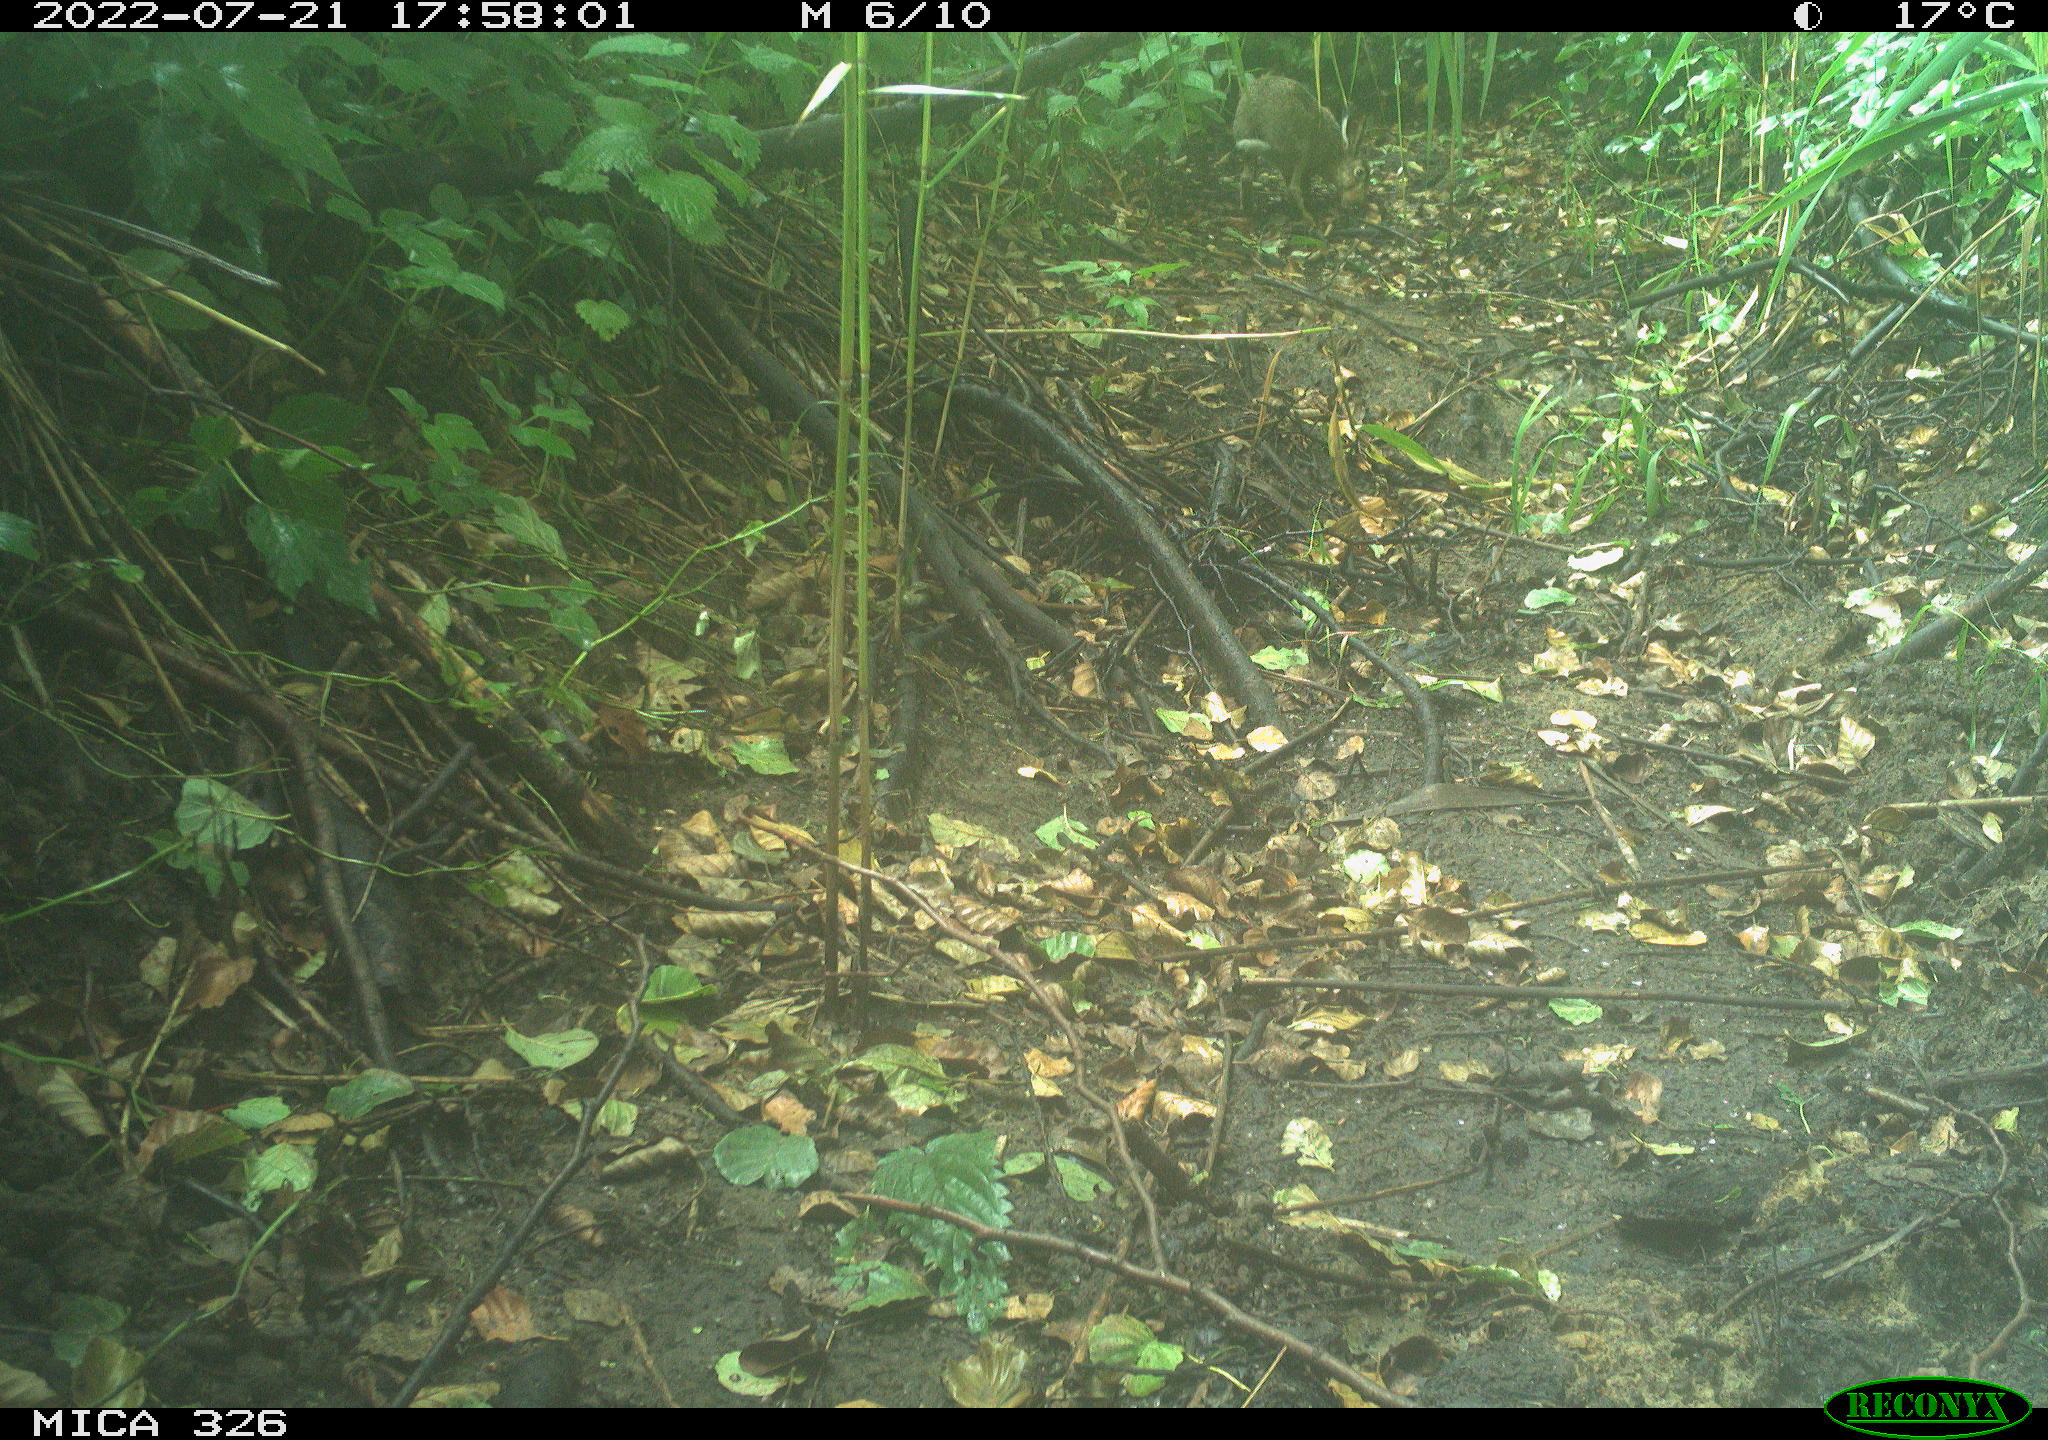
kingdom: Animalia
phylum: Chordata
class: Mammalia
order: Lagomorpha
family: Leporidae
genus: Lepus
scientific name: Lepus europaeus
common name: European hare
